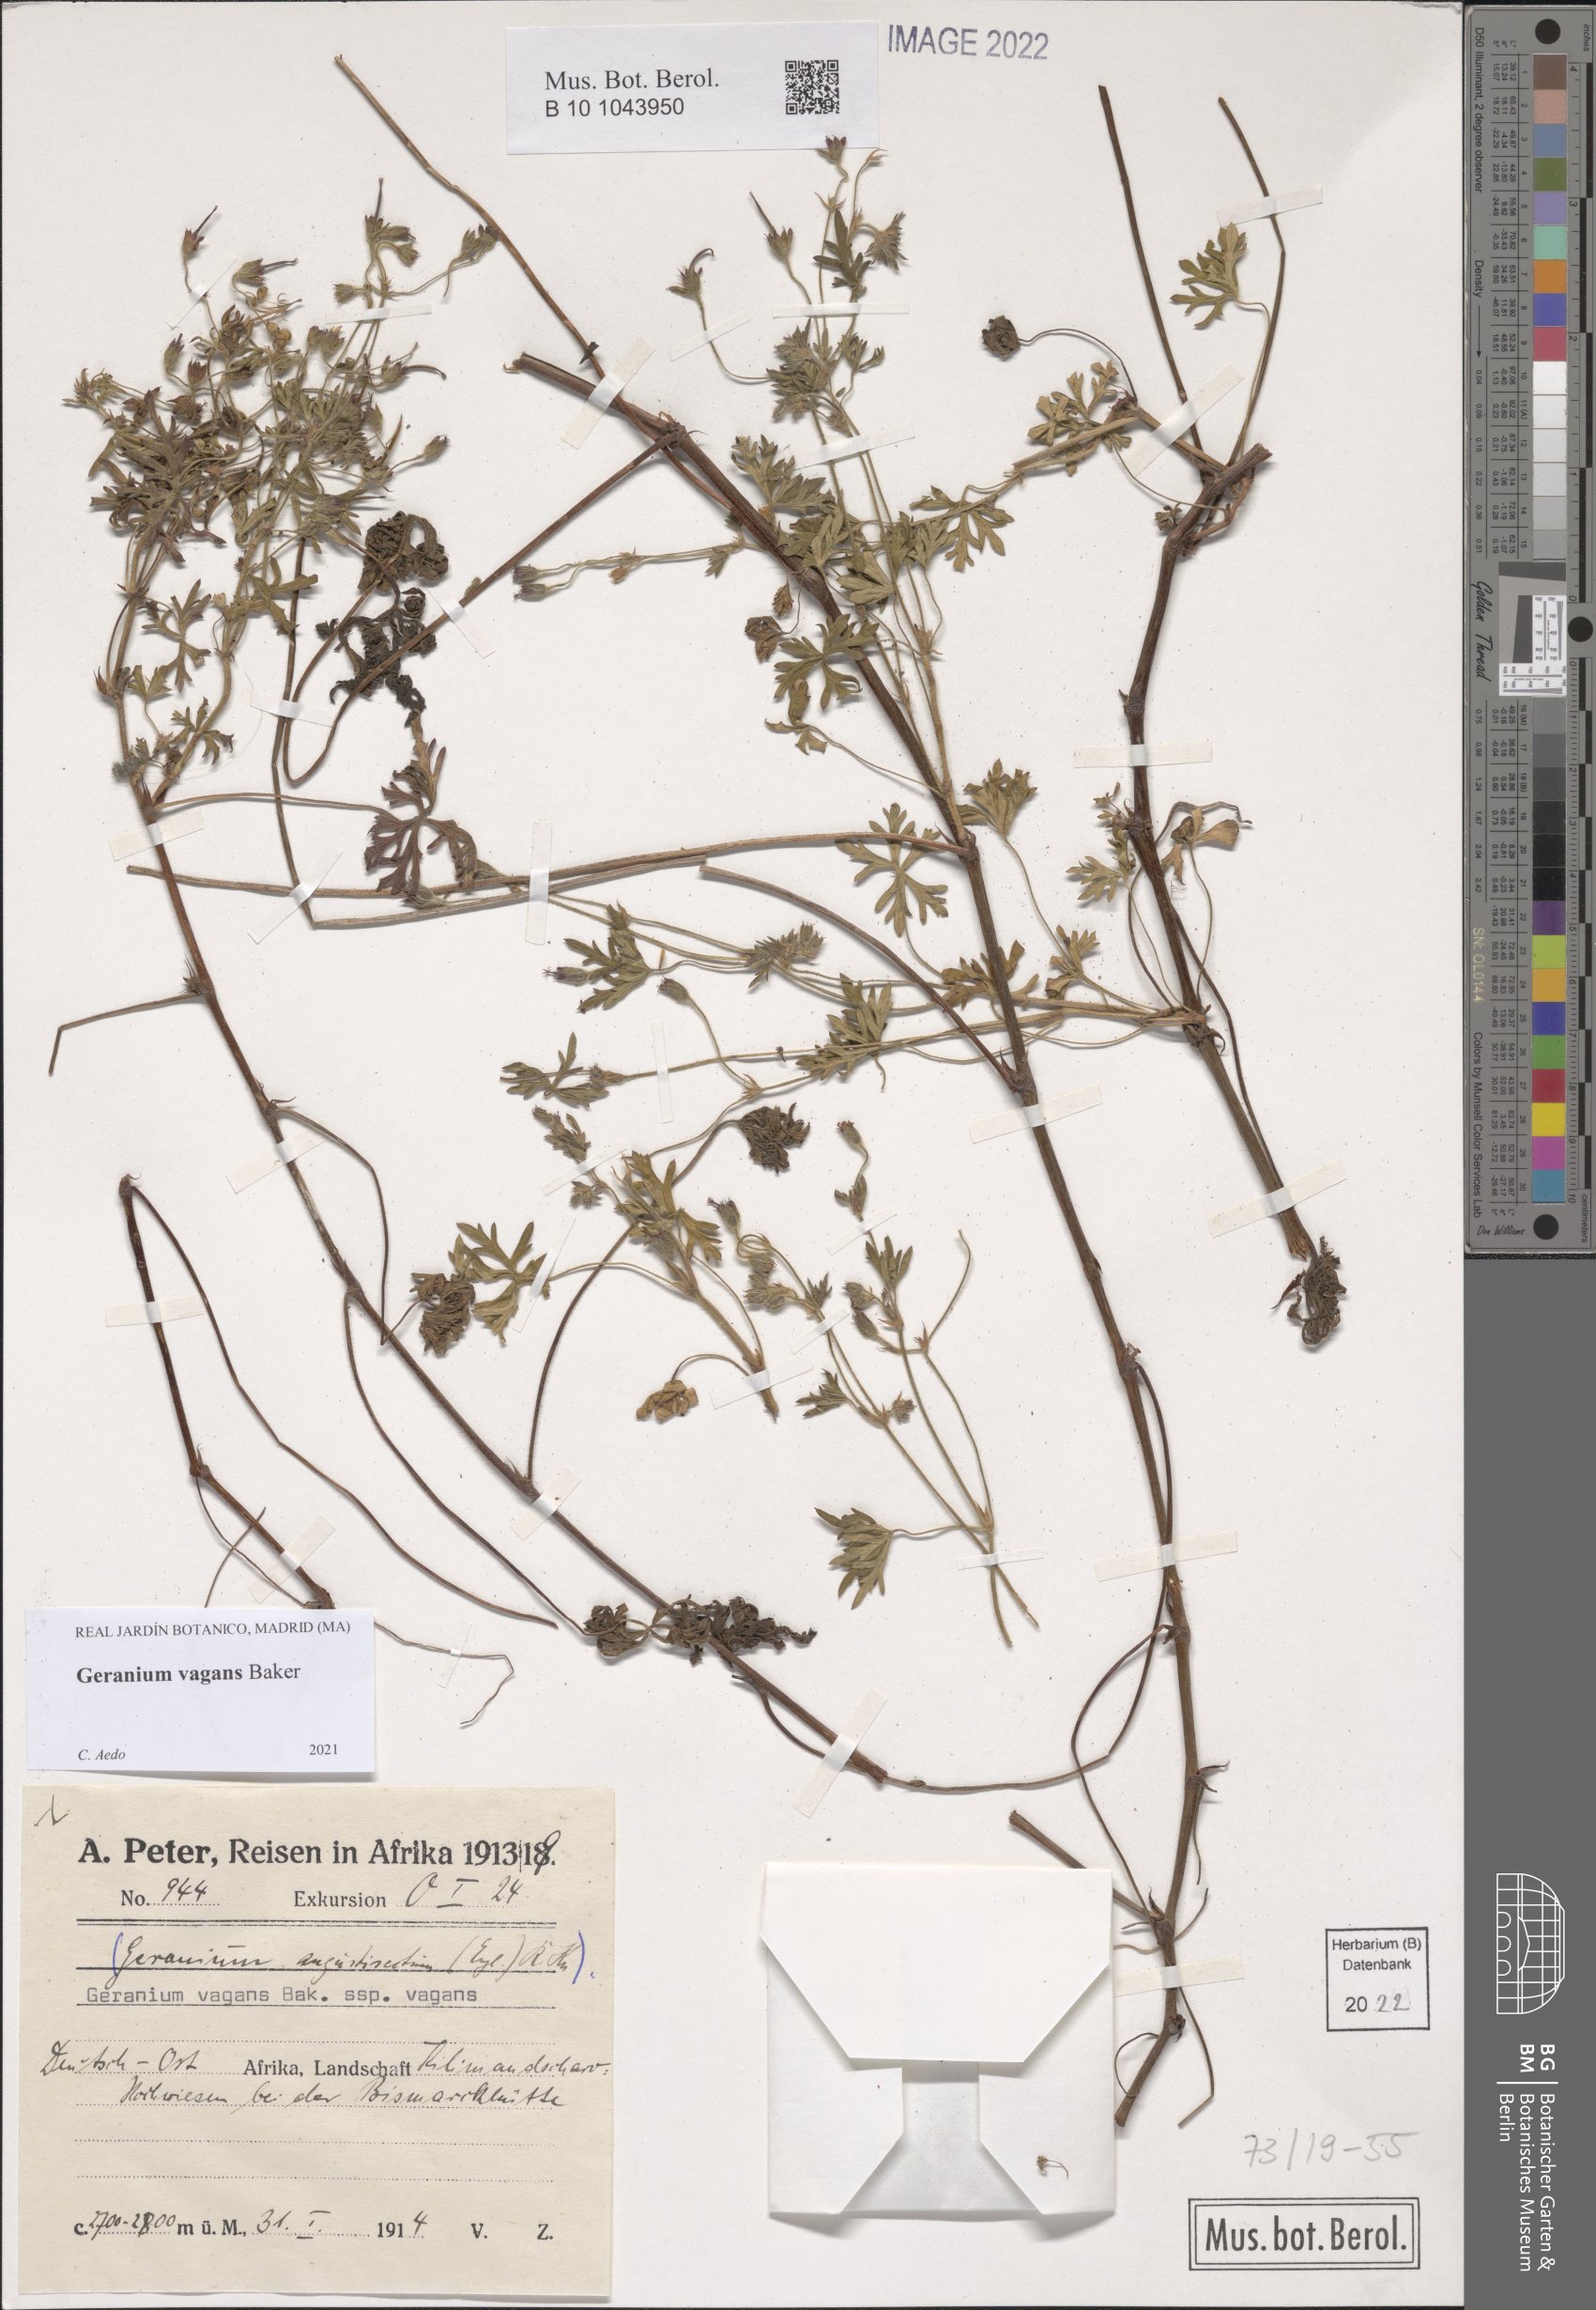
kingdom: Plantae
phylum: Tracheophyta
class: Magnoliopsida
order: Geraniales
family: Geraniaceae
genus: Geranium
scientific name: Geranium vagans
